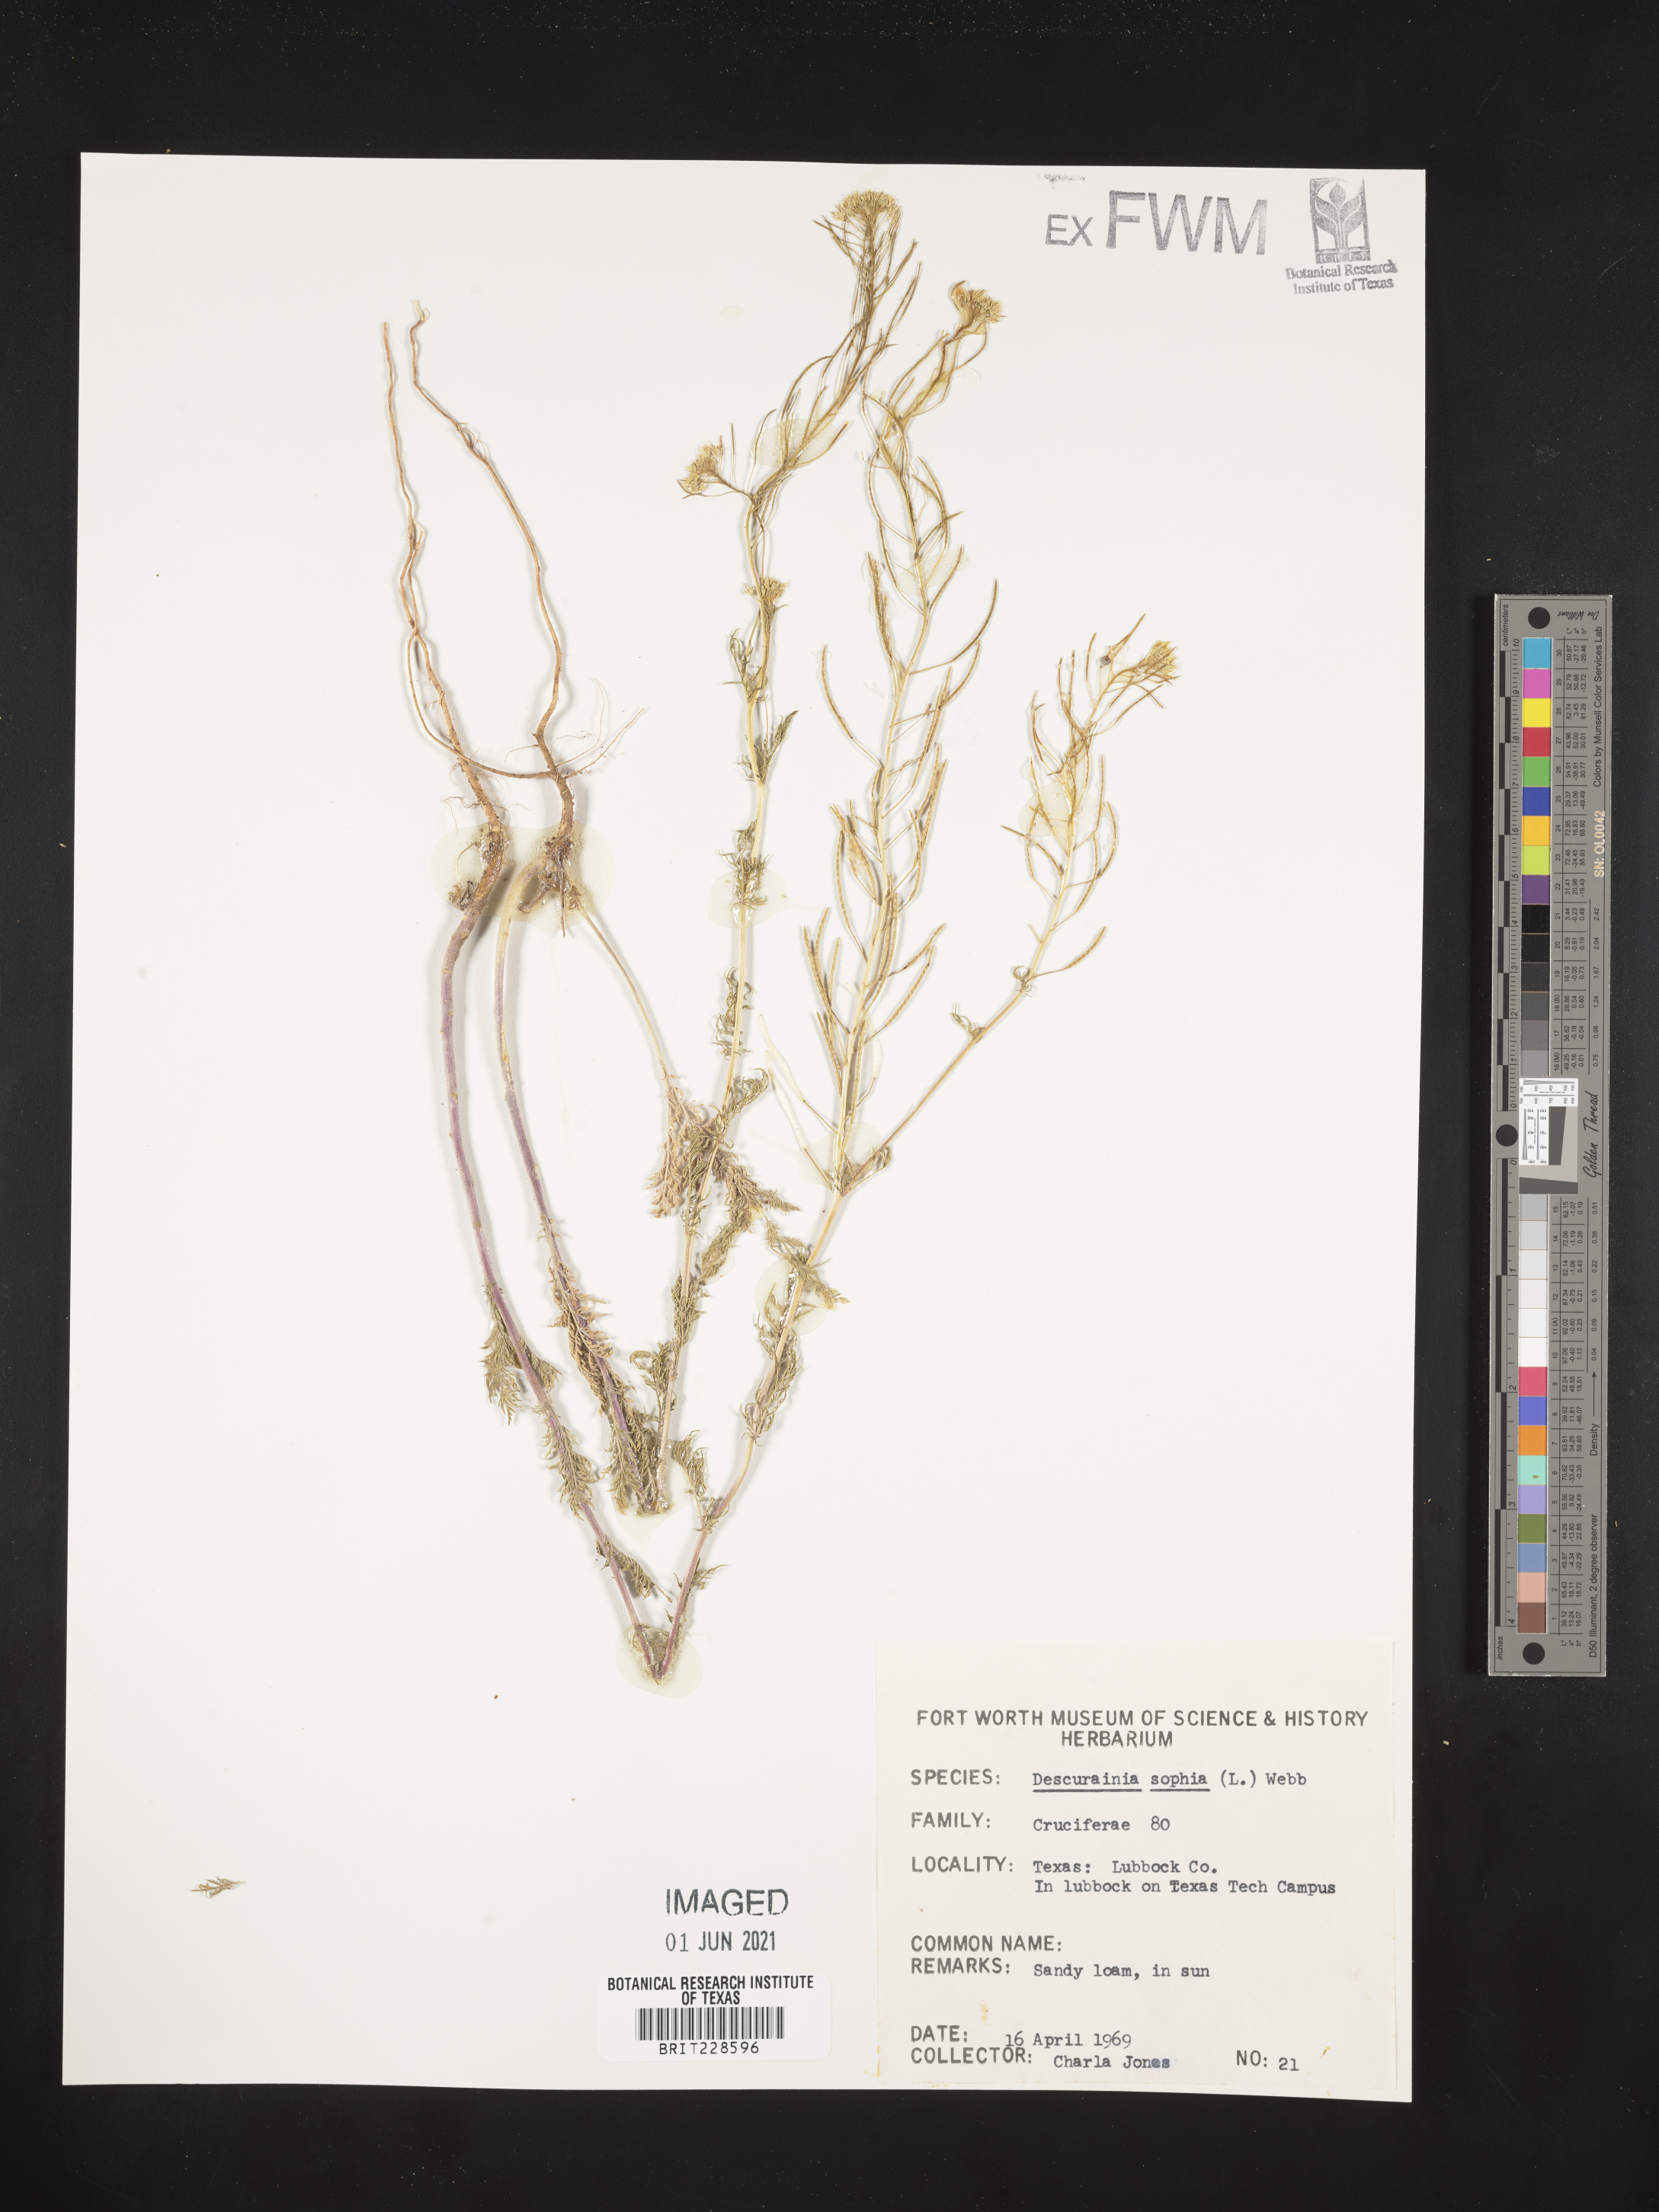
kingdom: Plantae
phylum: Tracheophyta
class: Magnoliopsida
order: Brassicales
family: Brassicaceae
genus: Descurainia
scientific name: Descurainia sophia
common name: Flixweed
